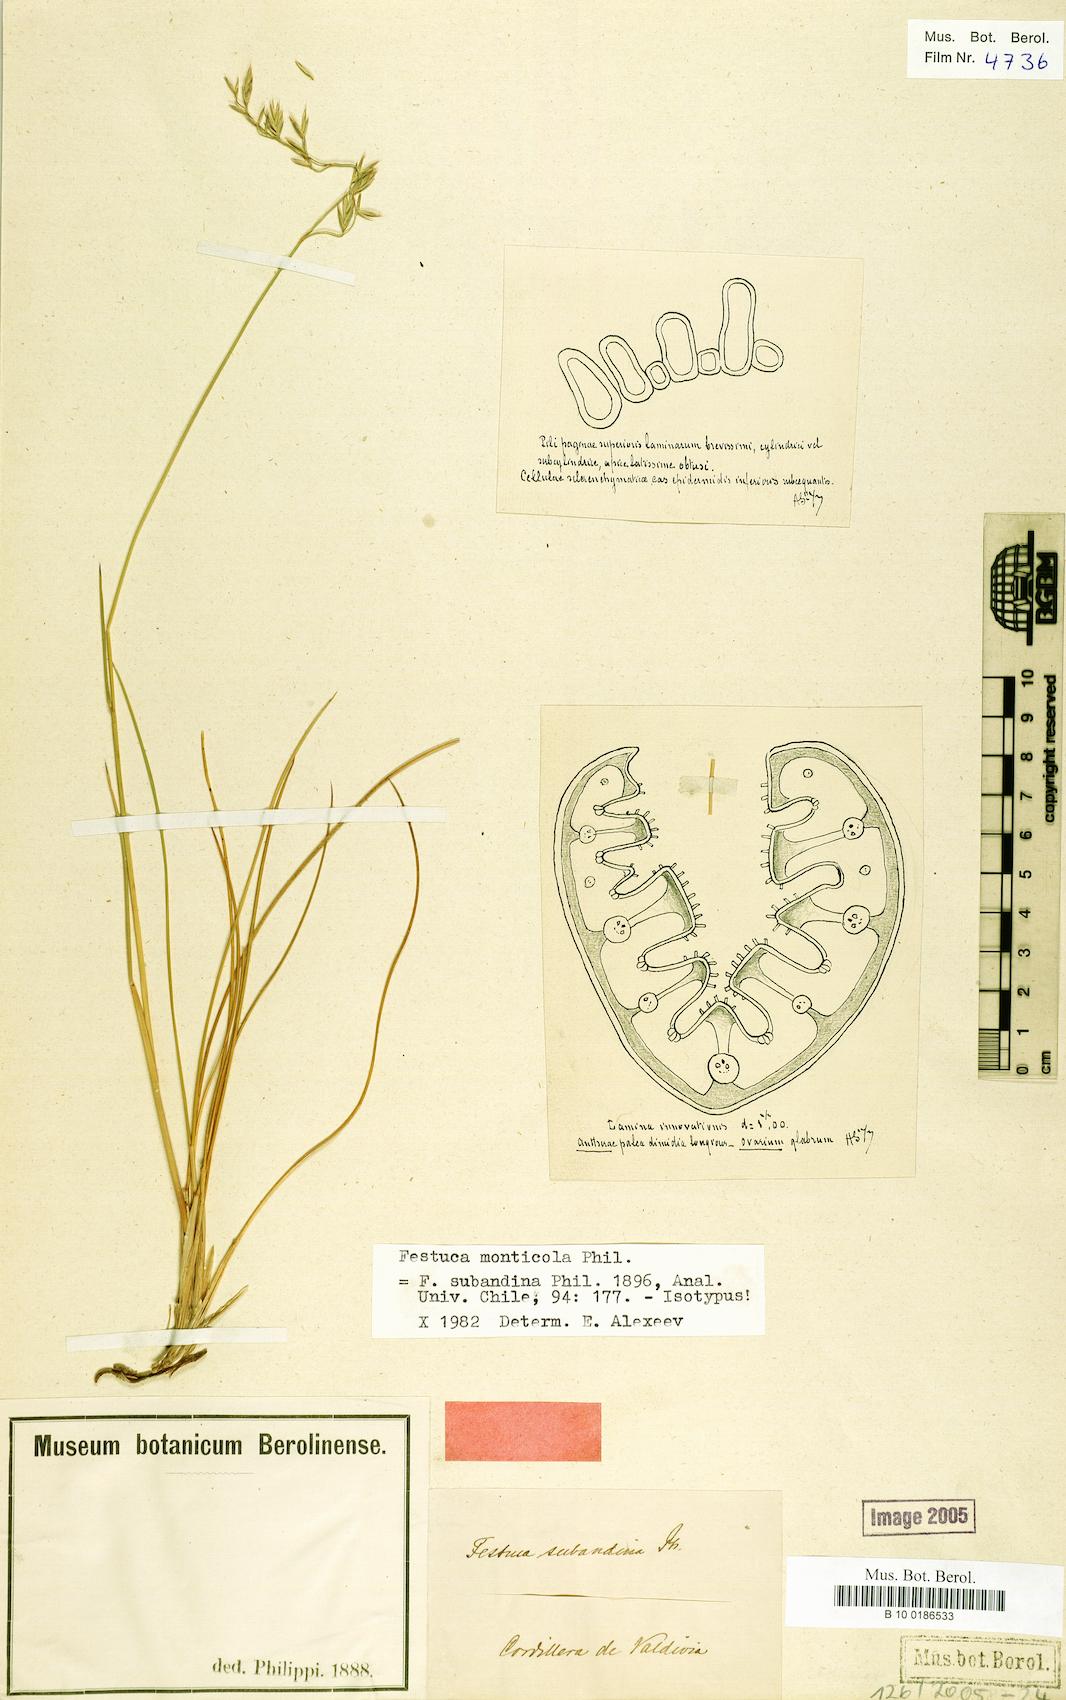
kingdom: Plantae
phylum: Tracheophyta
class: Liliopsida
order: Poales
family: Poaceae
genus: Festuca
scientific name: Festuca monticola
